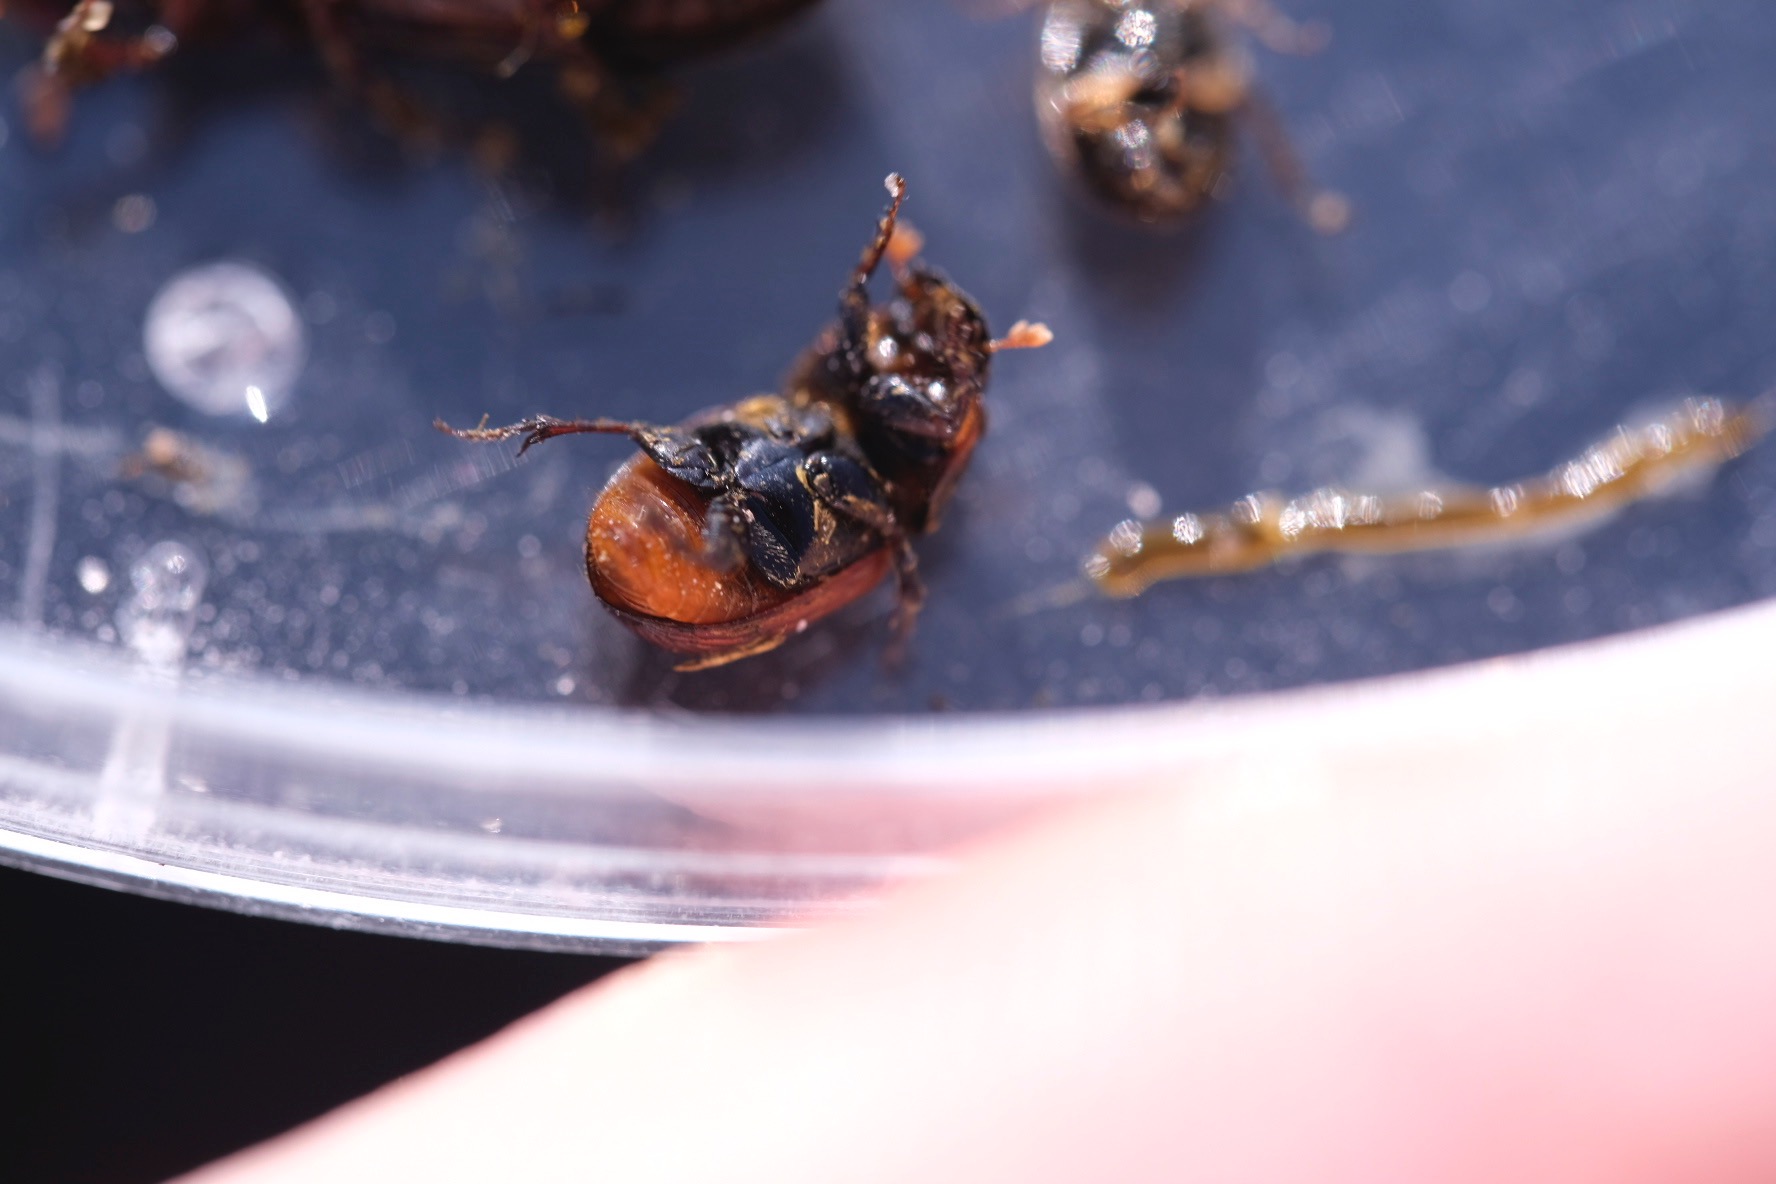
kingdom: Animalia
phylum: Arthropoda
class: Insecta
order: Coleoptera
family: Scarabaeidae
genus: Rhodaphodius
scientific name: Rhodaphodius foetens
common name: Rødbuget møgbille
